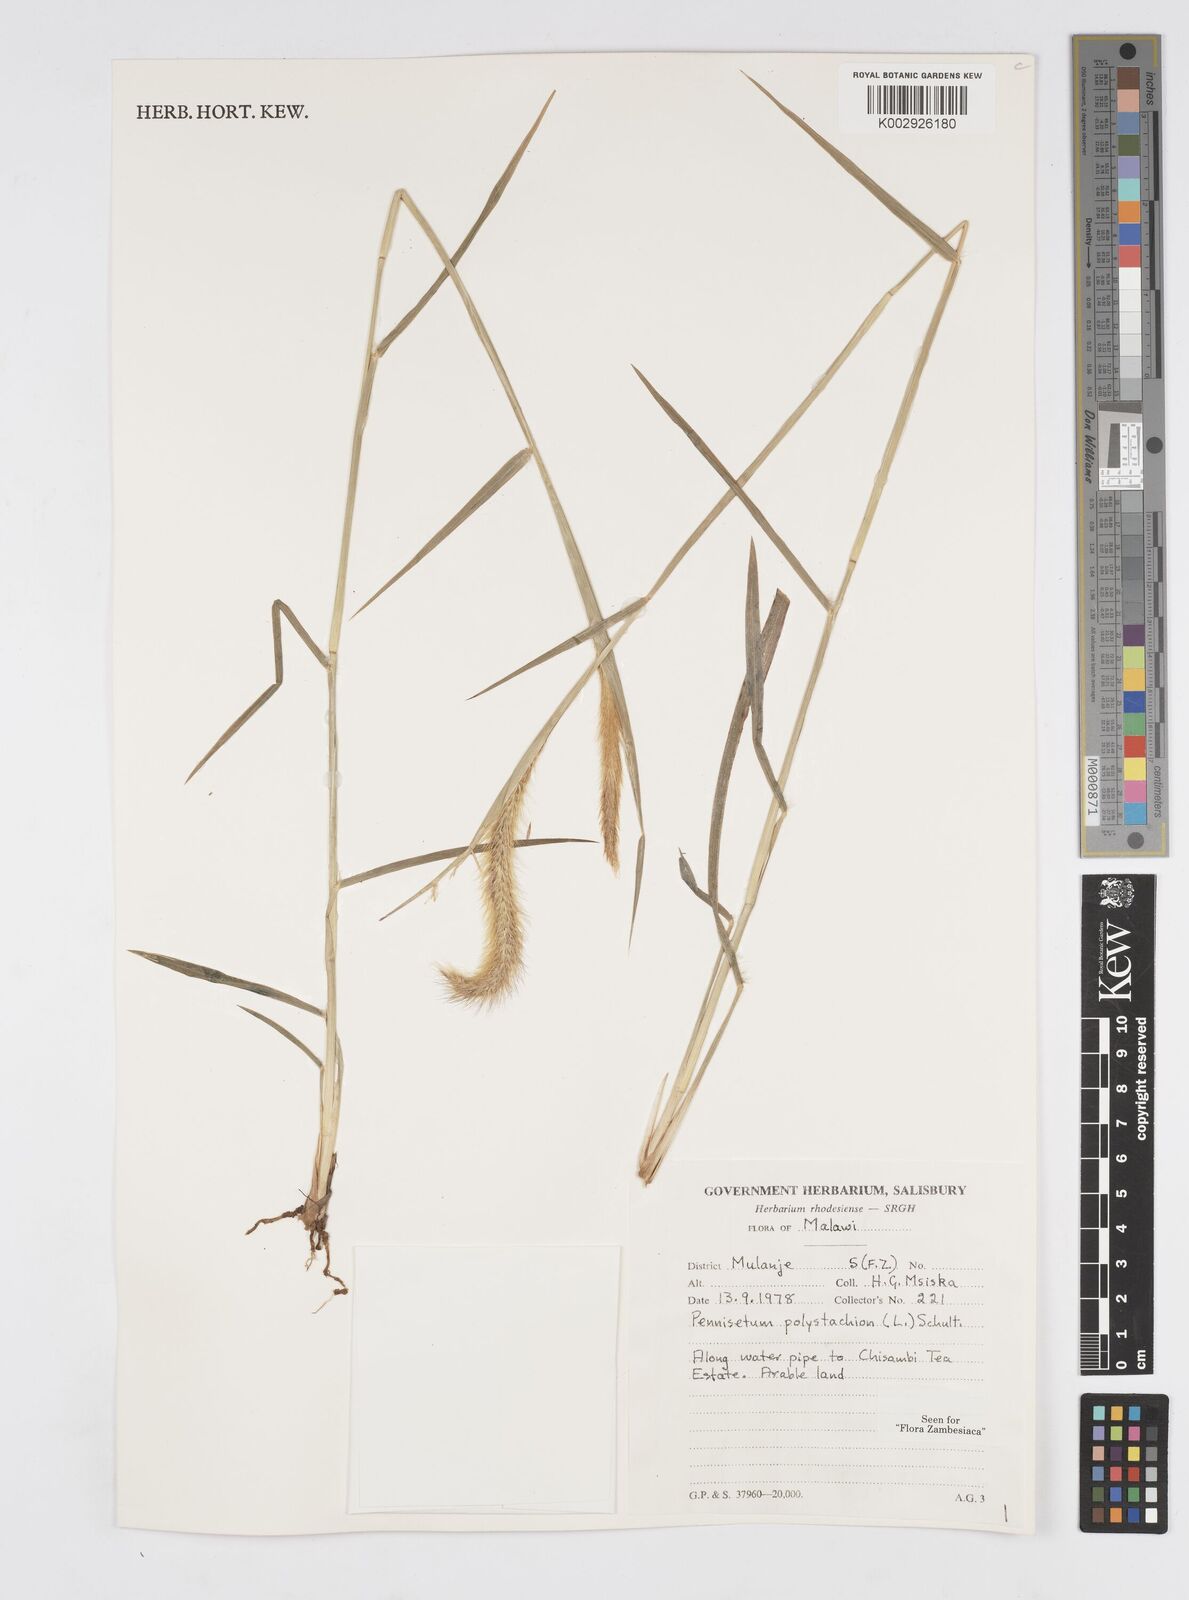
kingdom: Plantae
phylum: Tracheophyta
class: Liliopsida
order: Poales
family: Poaceae
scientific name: Poaceae
